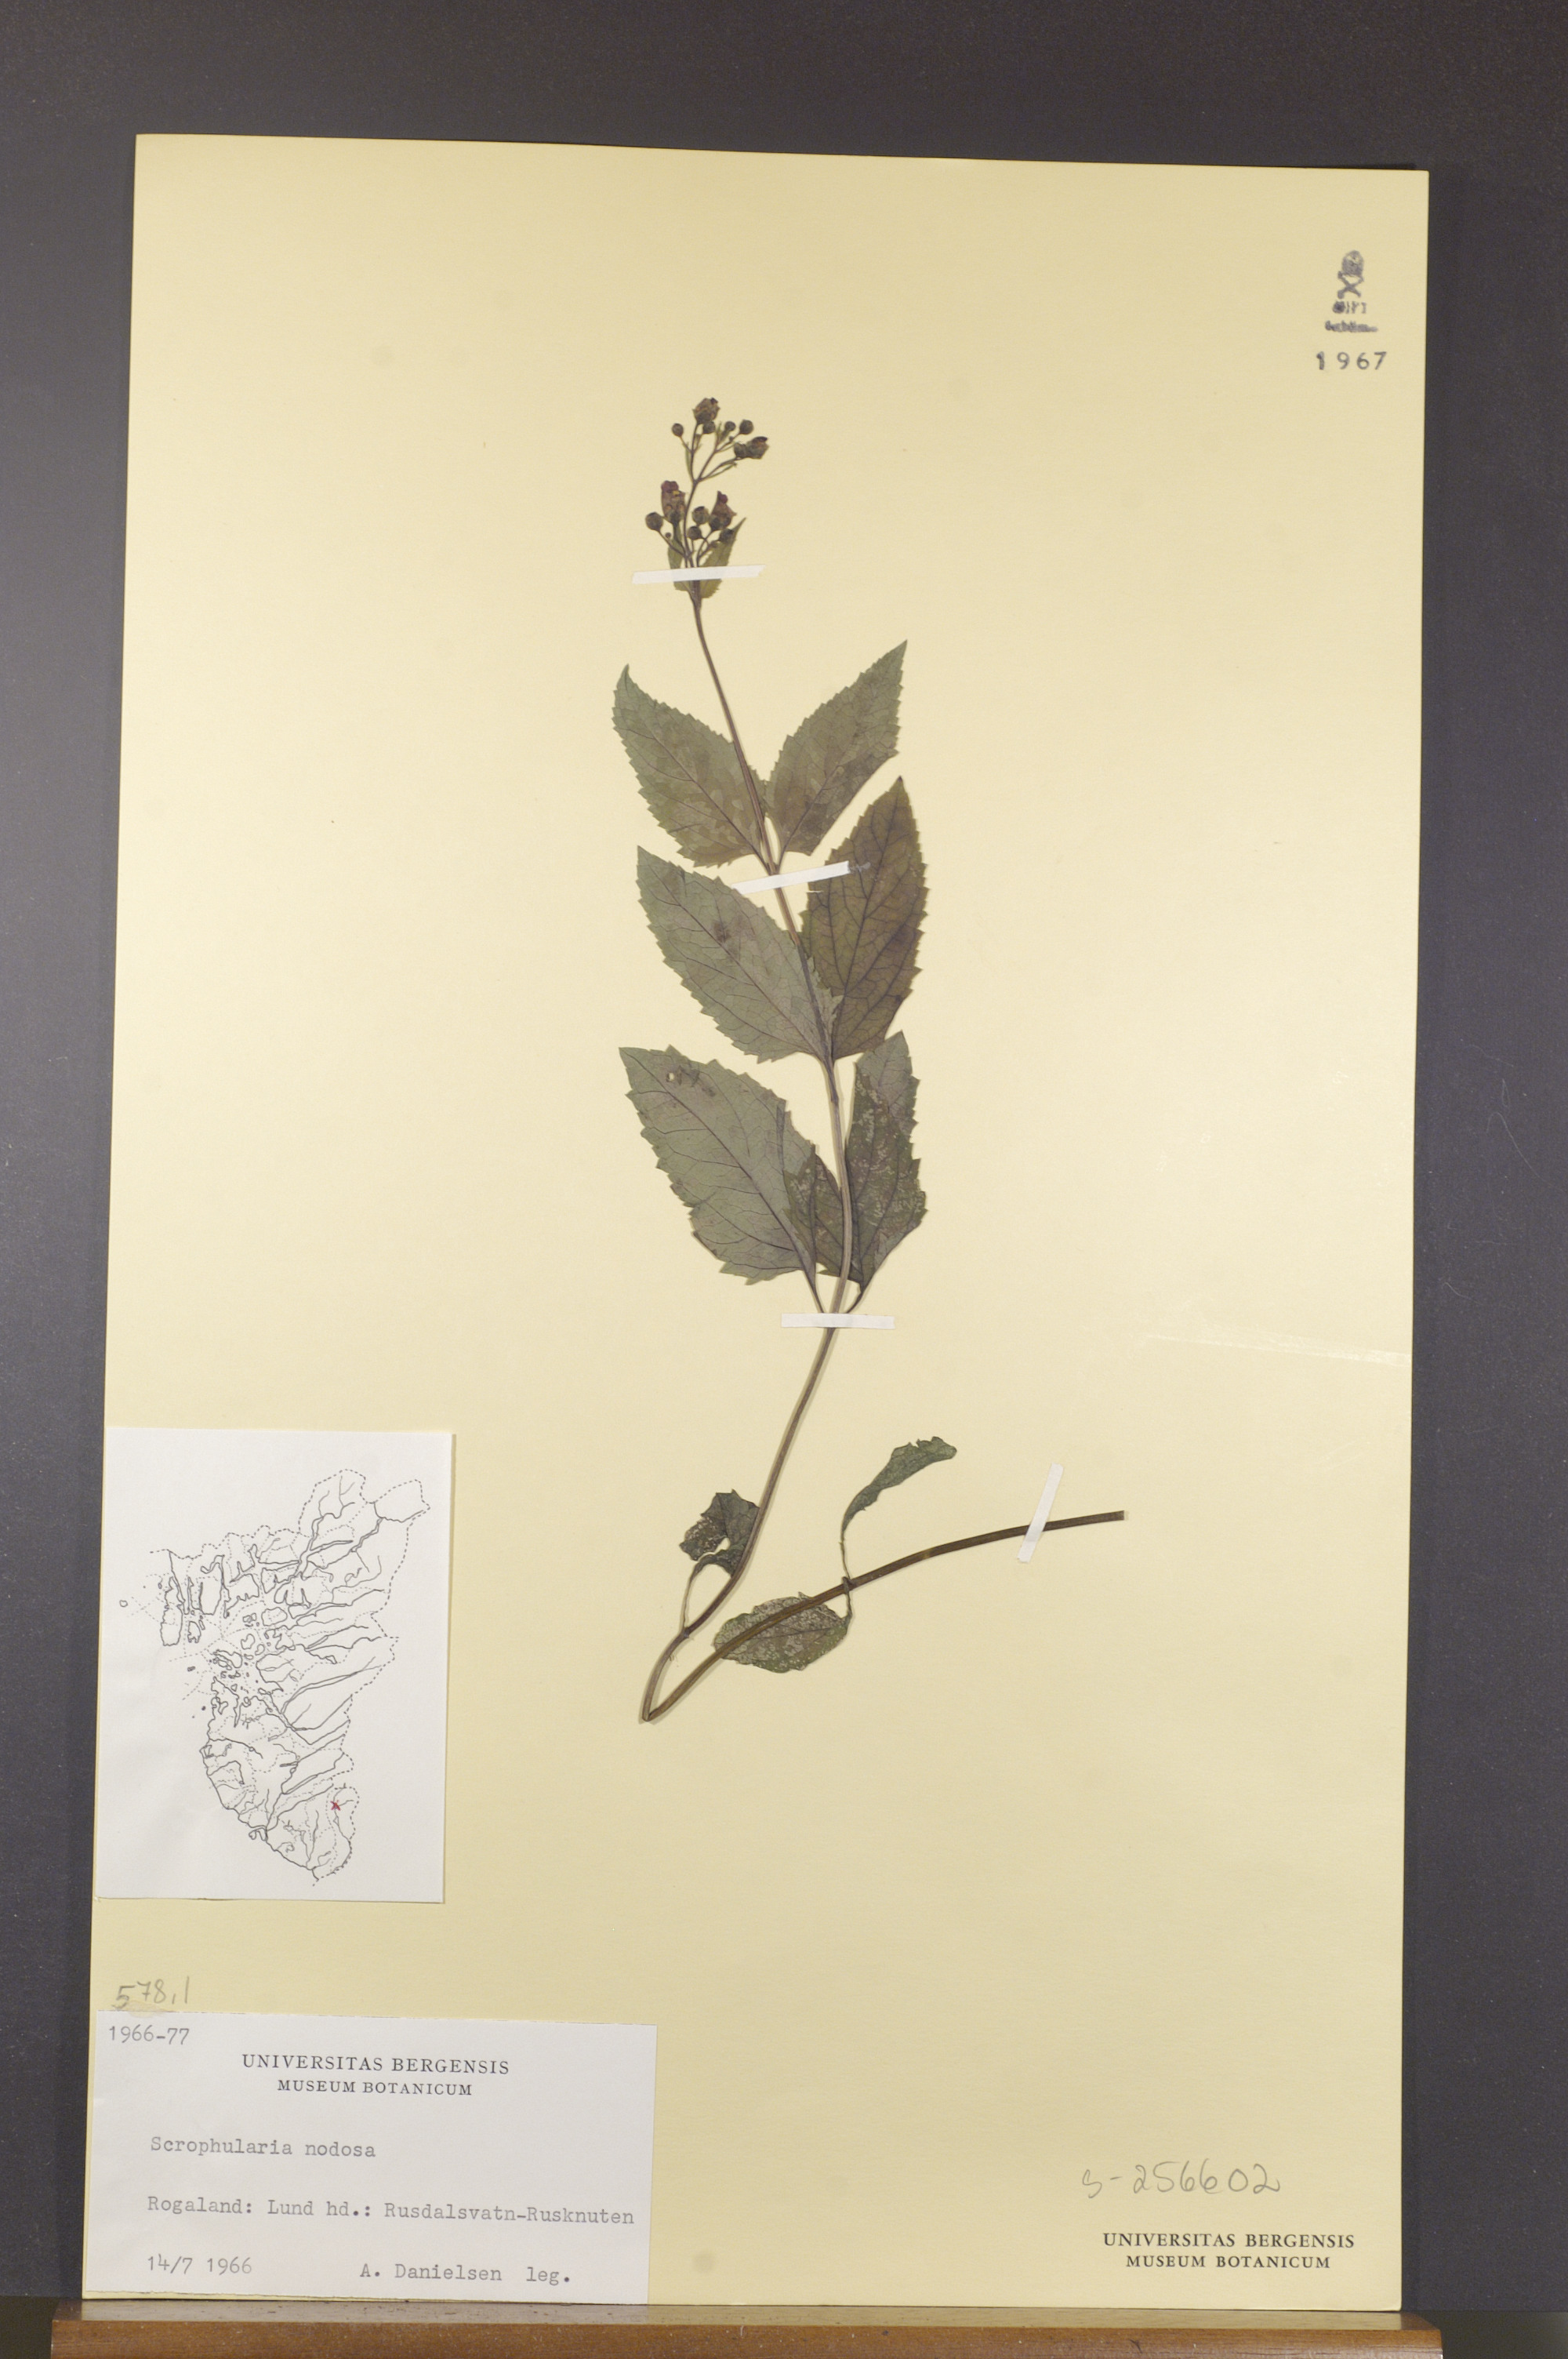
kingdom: Plantae
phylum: Tracheophyta
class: Magnoliopsida
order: Lamiales
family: Scrophulariaceae
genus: Scrophularia
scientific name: Scrophularia nodosa
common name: Common figwort
